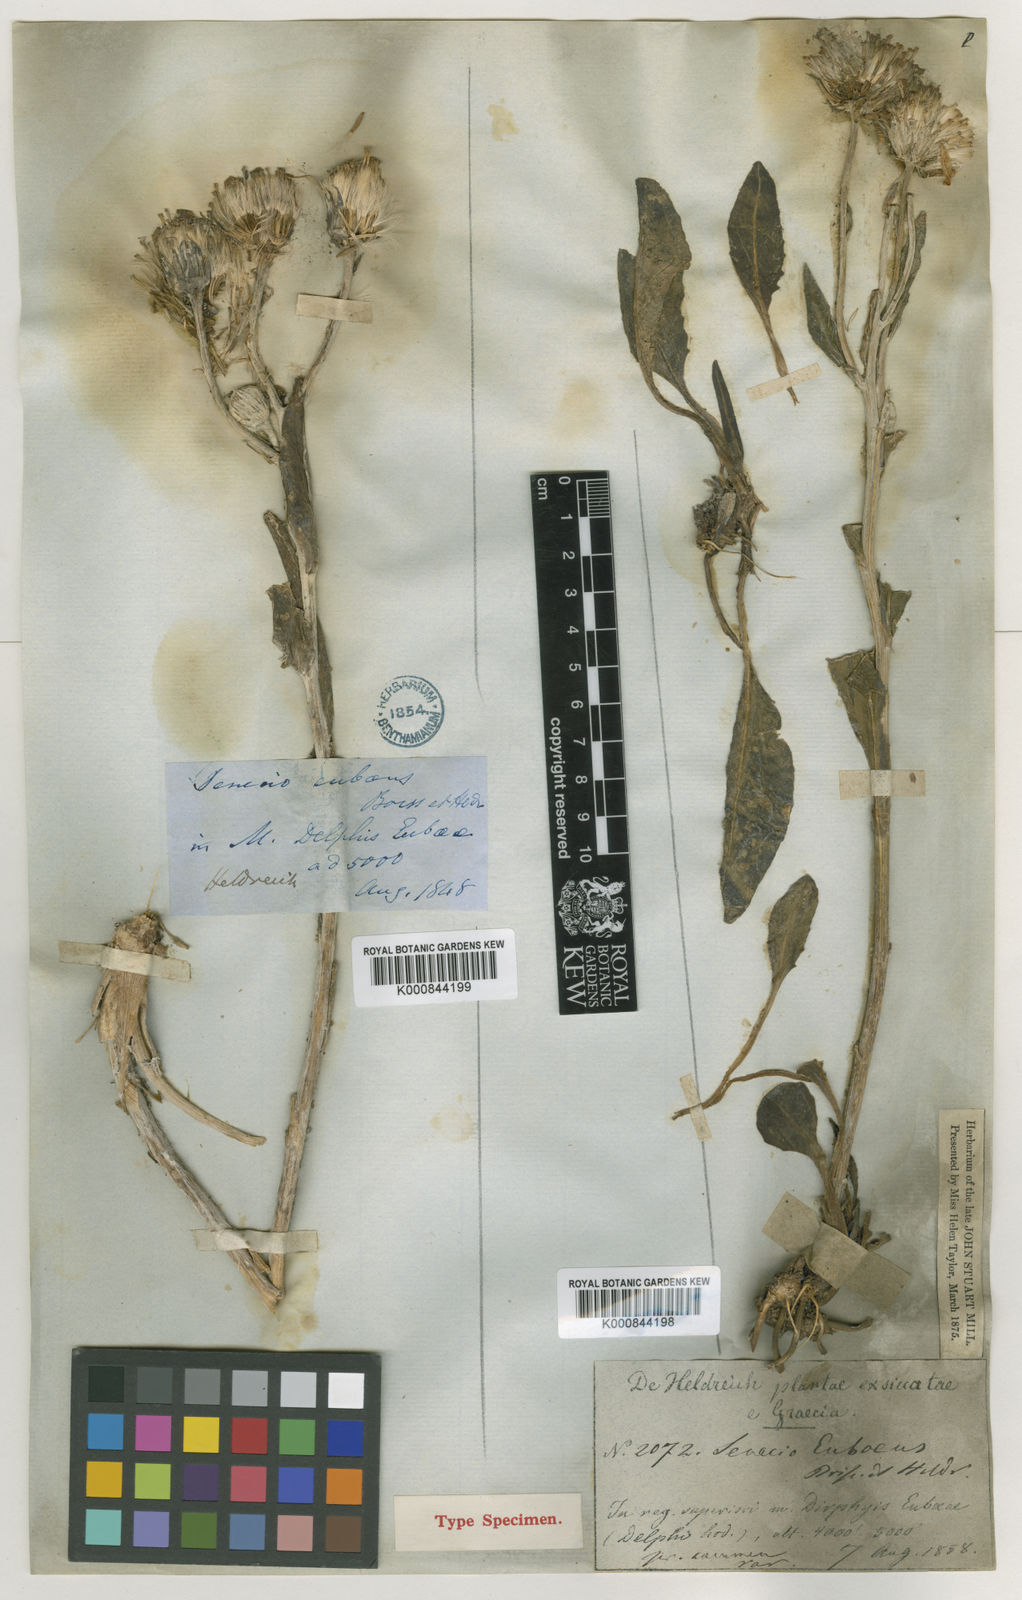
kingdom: Plantae
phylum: Tracheophyta
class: Magnoliopsida
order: Asterales
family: Asteraceae
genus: Senecio
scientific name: Senecio eubaeus
